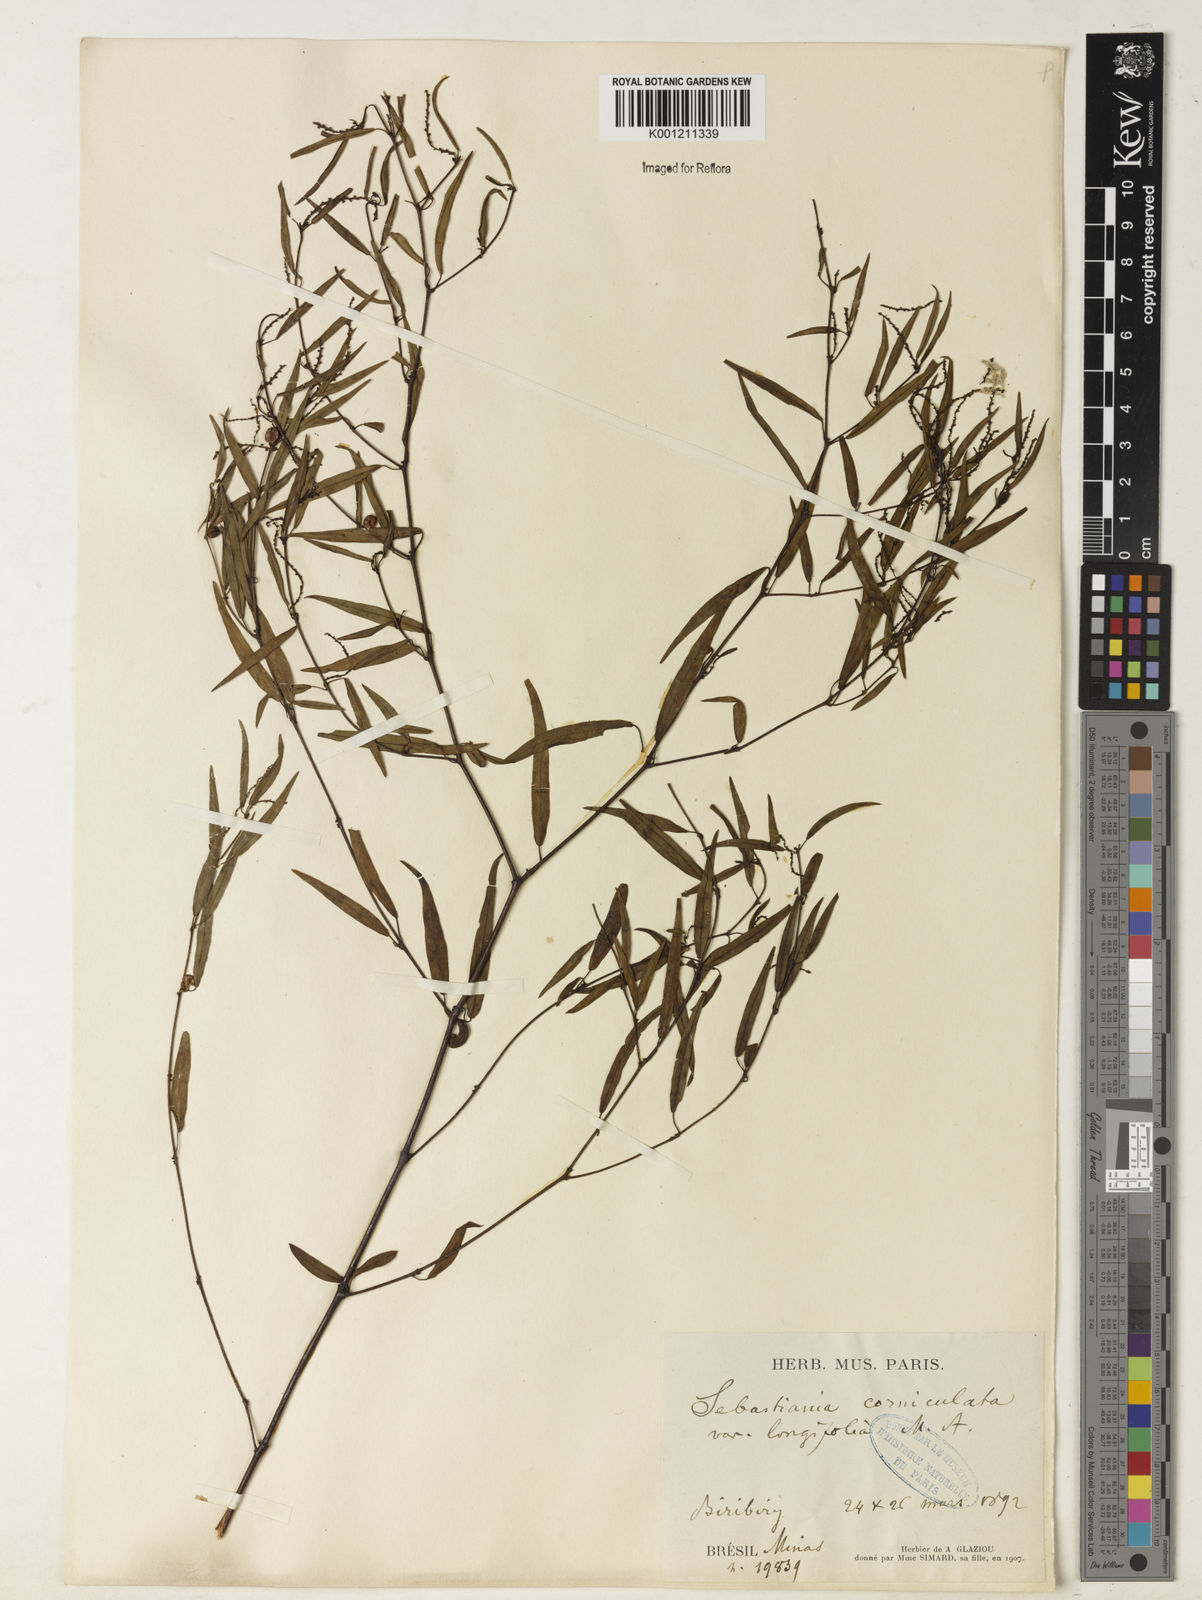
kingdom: Plantae
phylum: Tracheophyta
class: Magnoliopsida
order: Malpighiales
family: Euphorbiaceae
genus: Microstachys
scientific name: Microstachys corniculata
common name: Hato tejas
